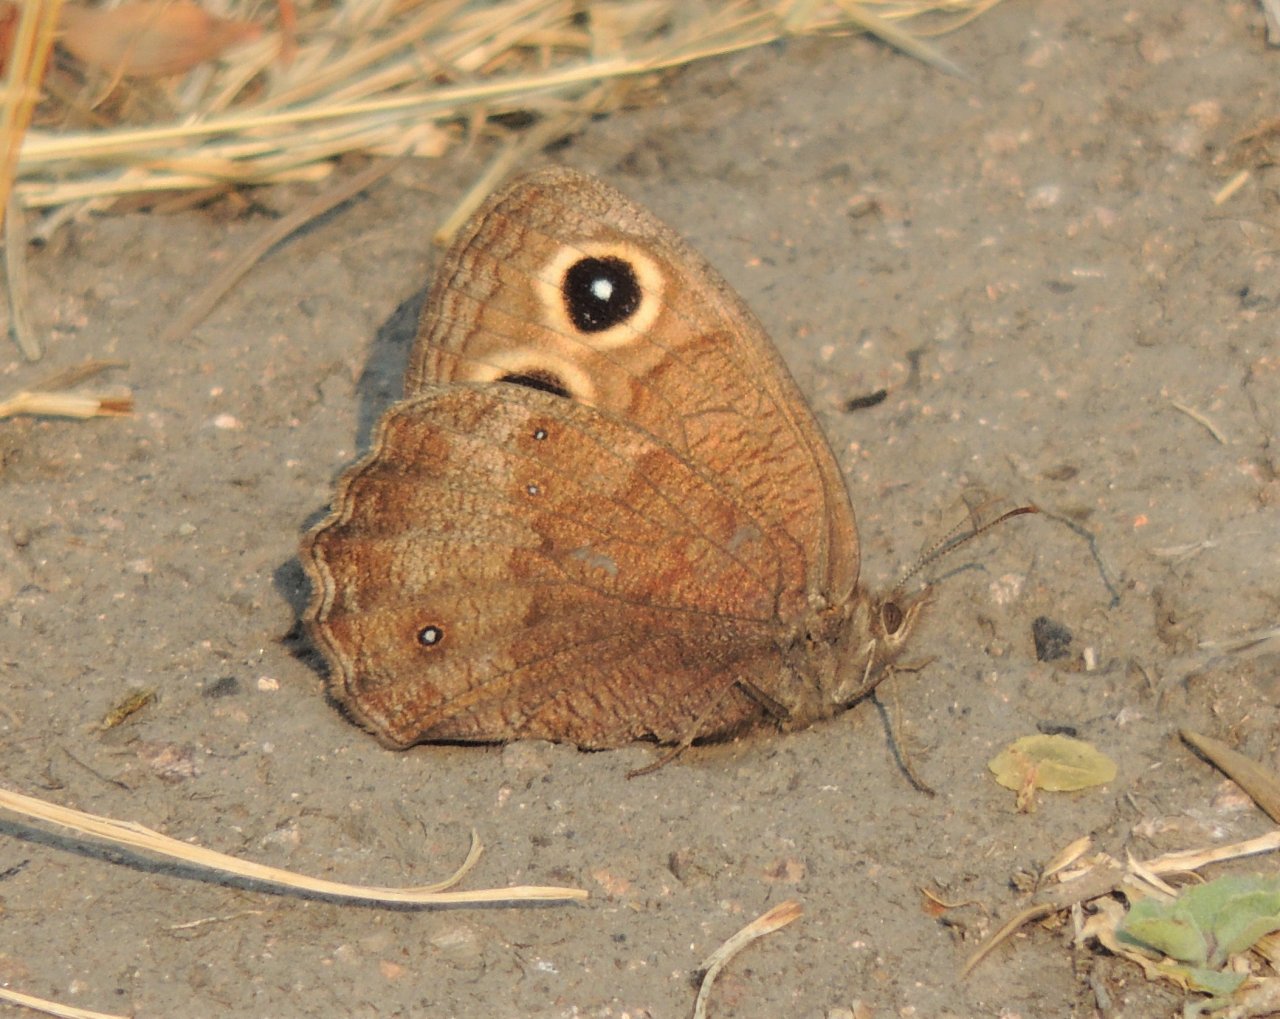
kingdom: Animalia
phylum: Arthropoda
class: Insecta
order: Lepidoptera
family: Nymphalidae
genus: Cercyonis
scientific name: Cercyonis pegala
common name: Common Wood-Nymph
